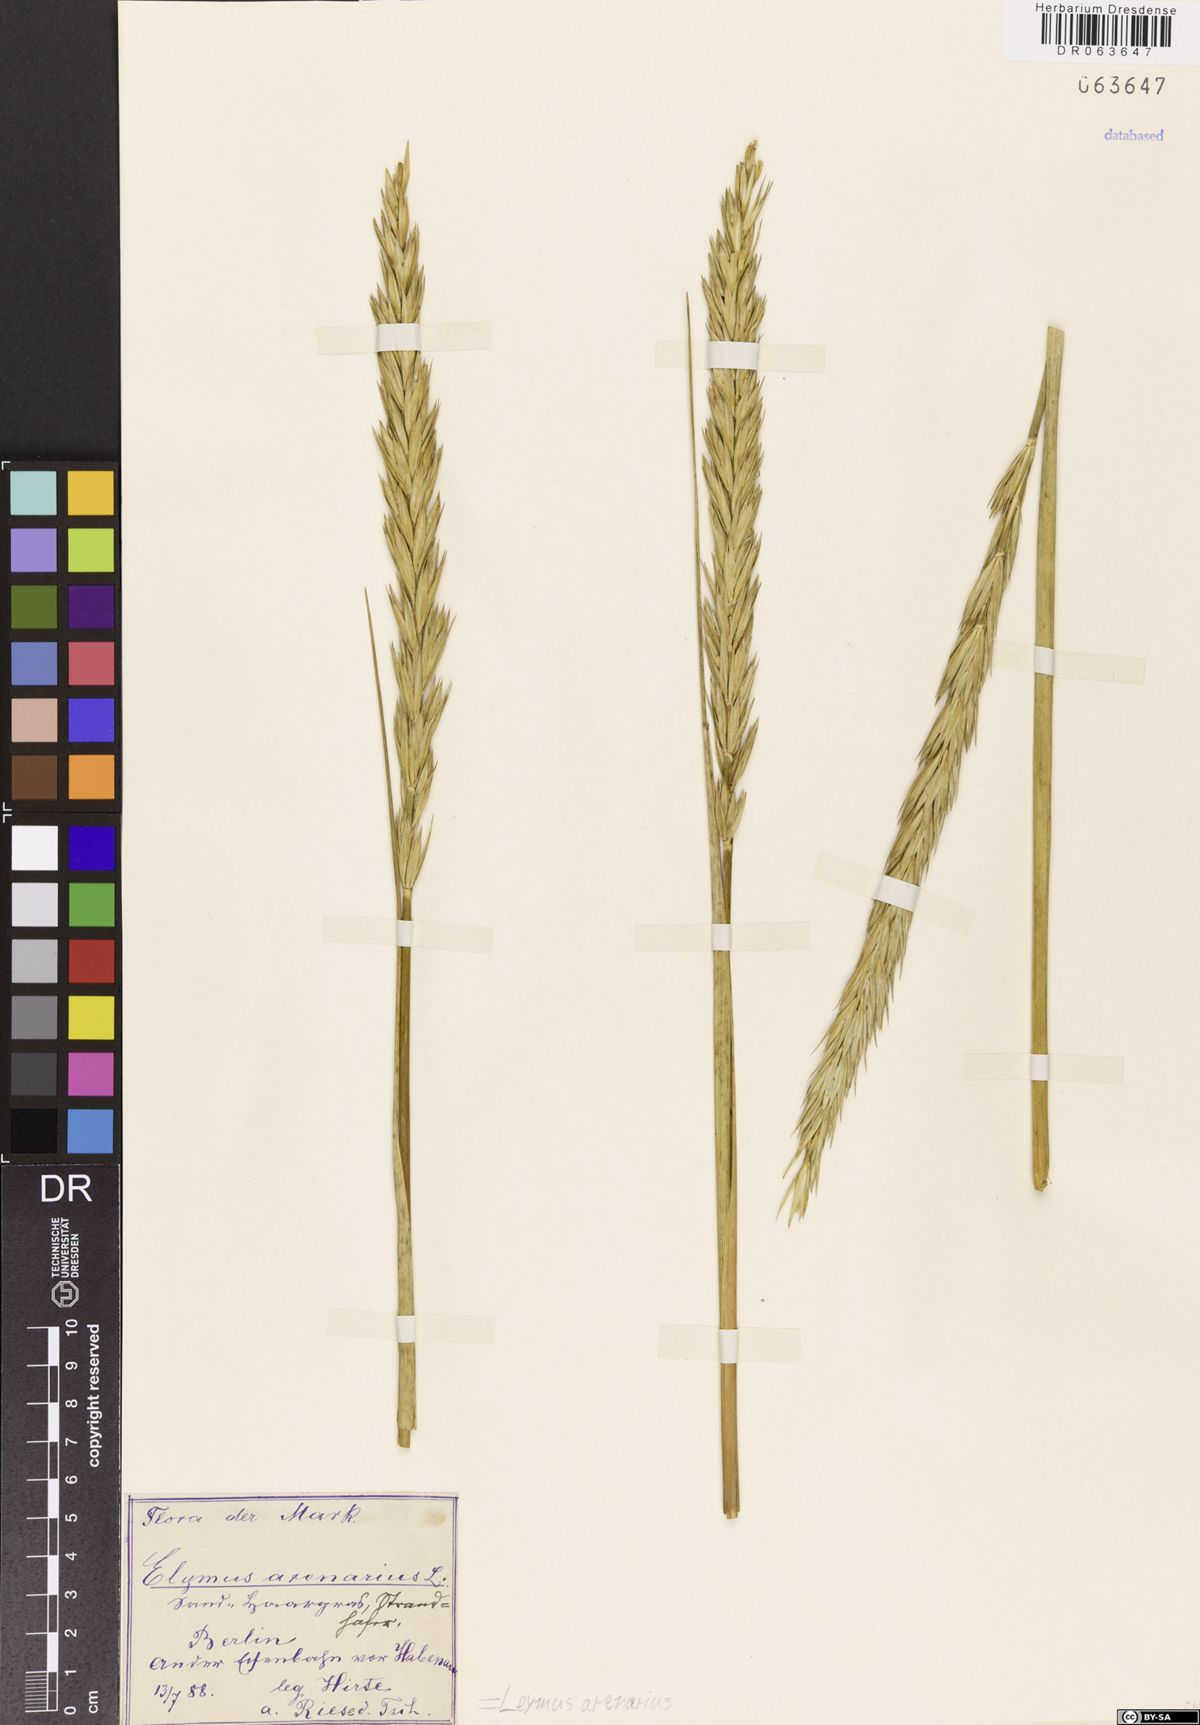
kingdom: Plantae
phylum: Tracheophyta
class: Liliopsida
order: Poales
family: Poaceae
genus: Leymus
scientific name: Leymus arenarius
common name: Lyme-grass
